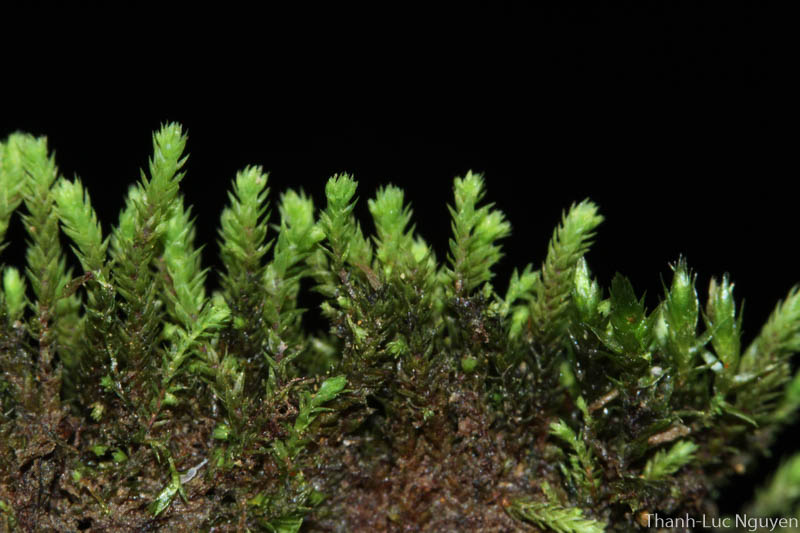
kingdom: Plantae
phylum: Bryophyta
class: Bryopsida
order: Bartramiales
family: Bartramiaceae
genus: Philonotis
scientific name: Philonotis hastata
